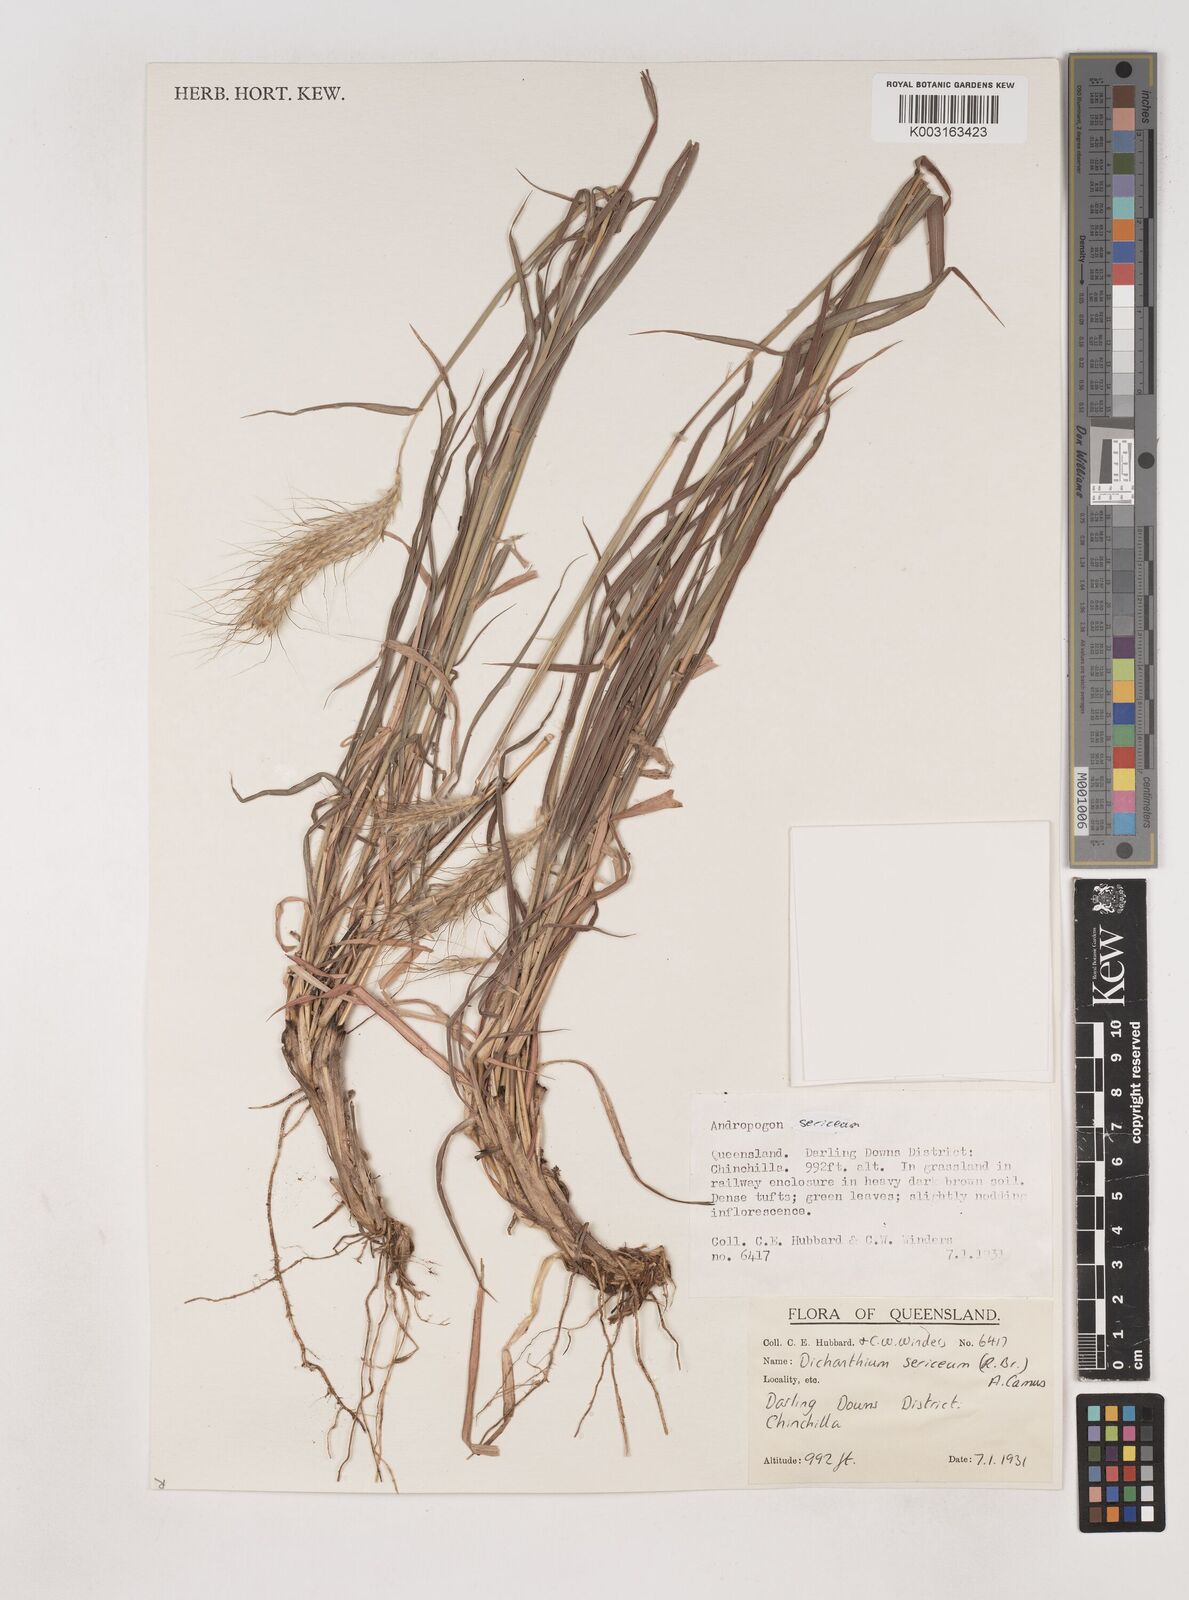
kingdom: Plantae
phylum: Tracheophyta
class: Liliopsida
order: Poales
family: Poaceae
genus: Dichanthium
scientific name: Dichanthium sericeum
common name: Silky bluestem
